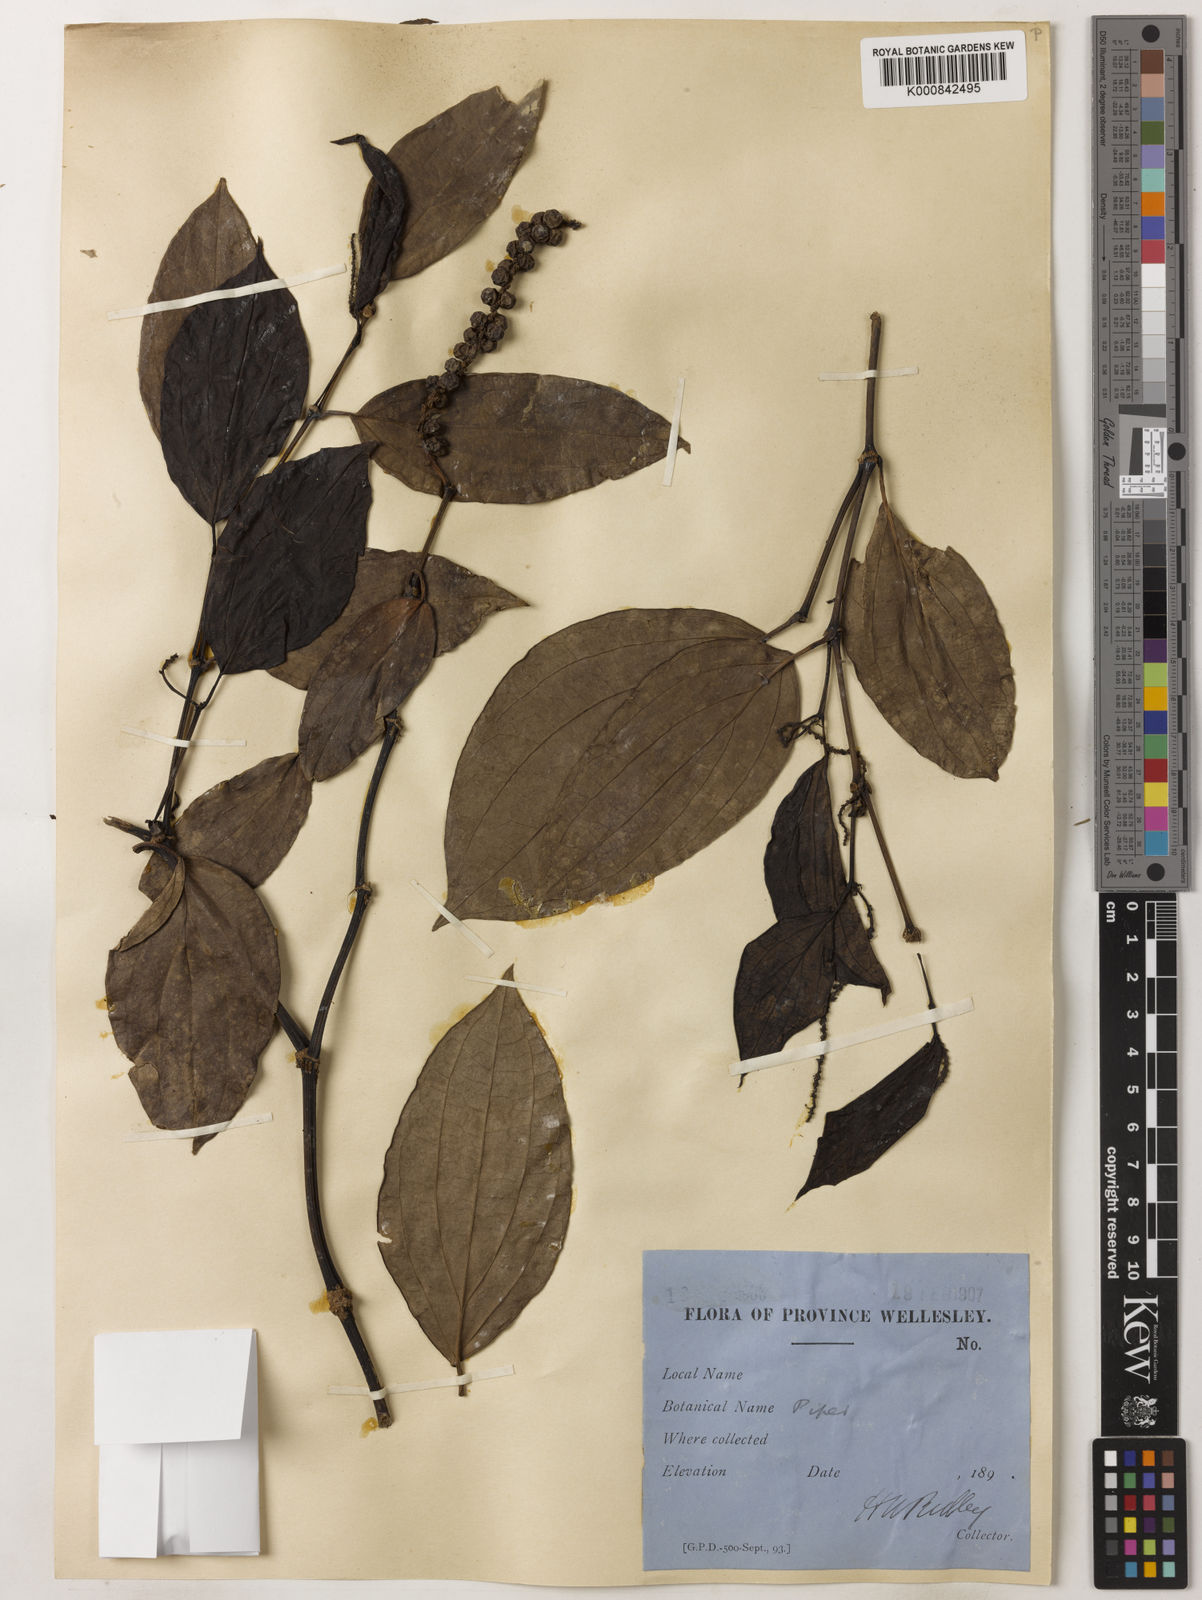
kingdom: Plantae
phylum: Tracheophyta
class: Magnoliopsida
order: Piperales
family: Piperaceae
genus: Piper
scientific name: Piper
